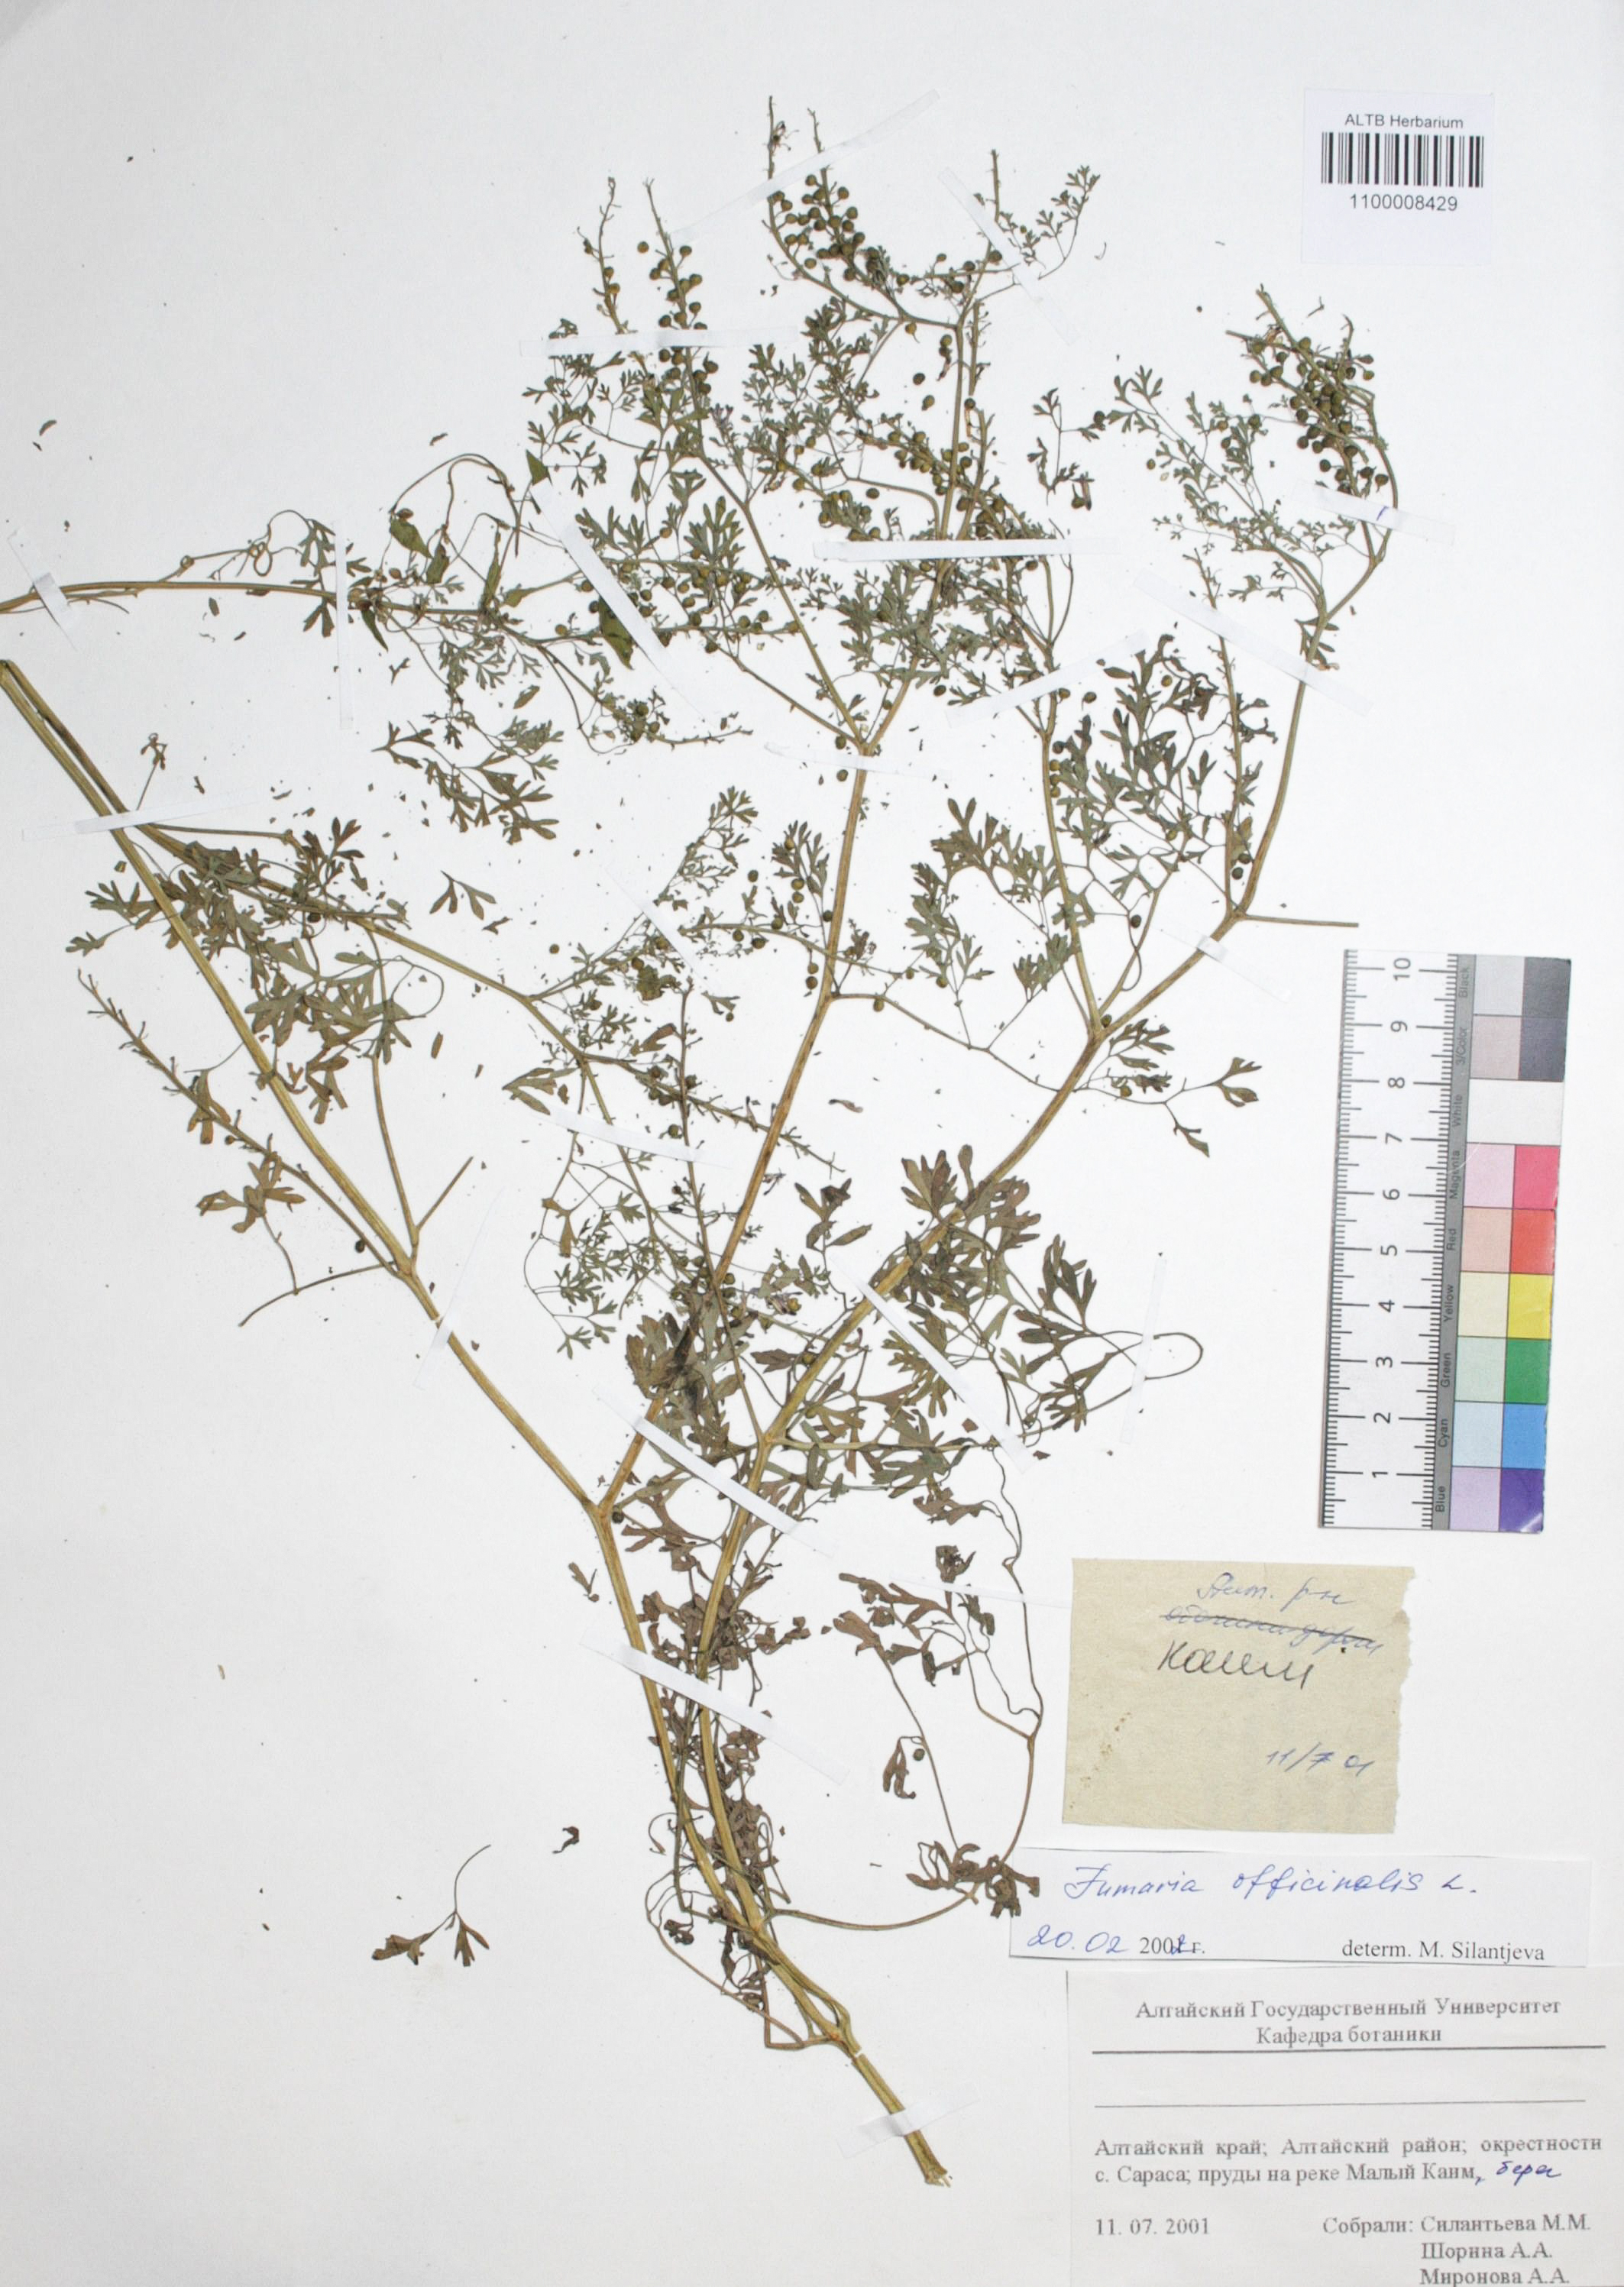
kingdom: Plantae
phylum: Tracheophyta
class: Magnoliopsida
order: Ranunculales
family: Papaveraceae
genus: Fumaria
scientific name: Fumaria officinalis
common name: Common fumitory
